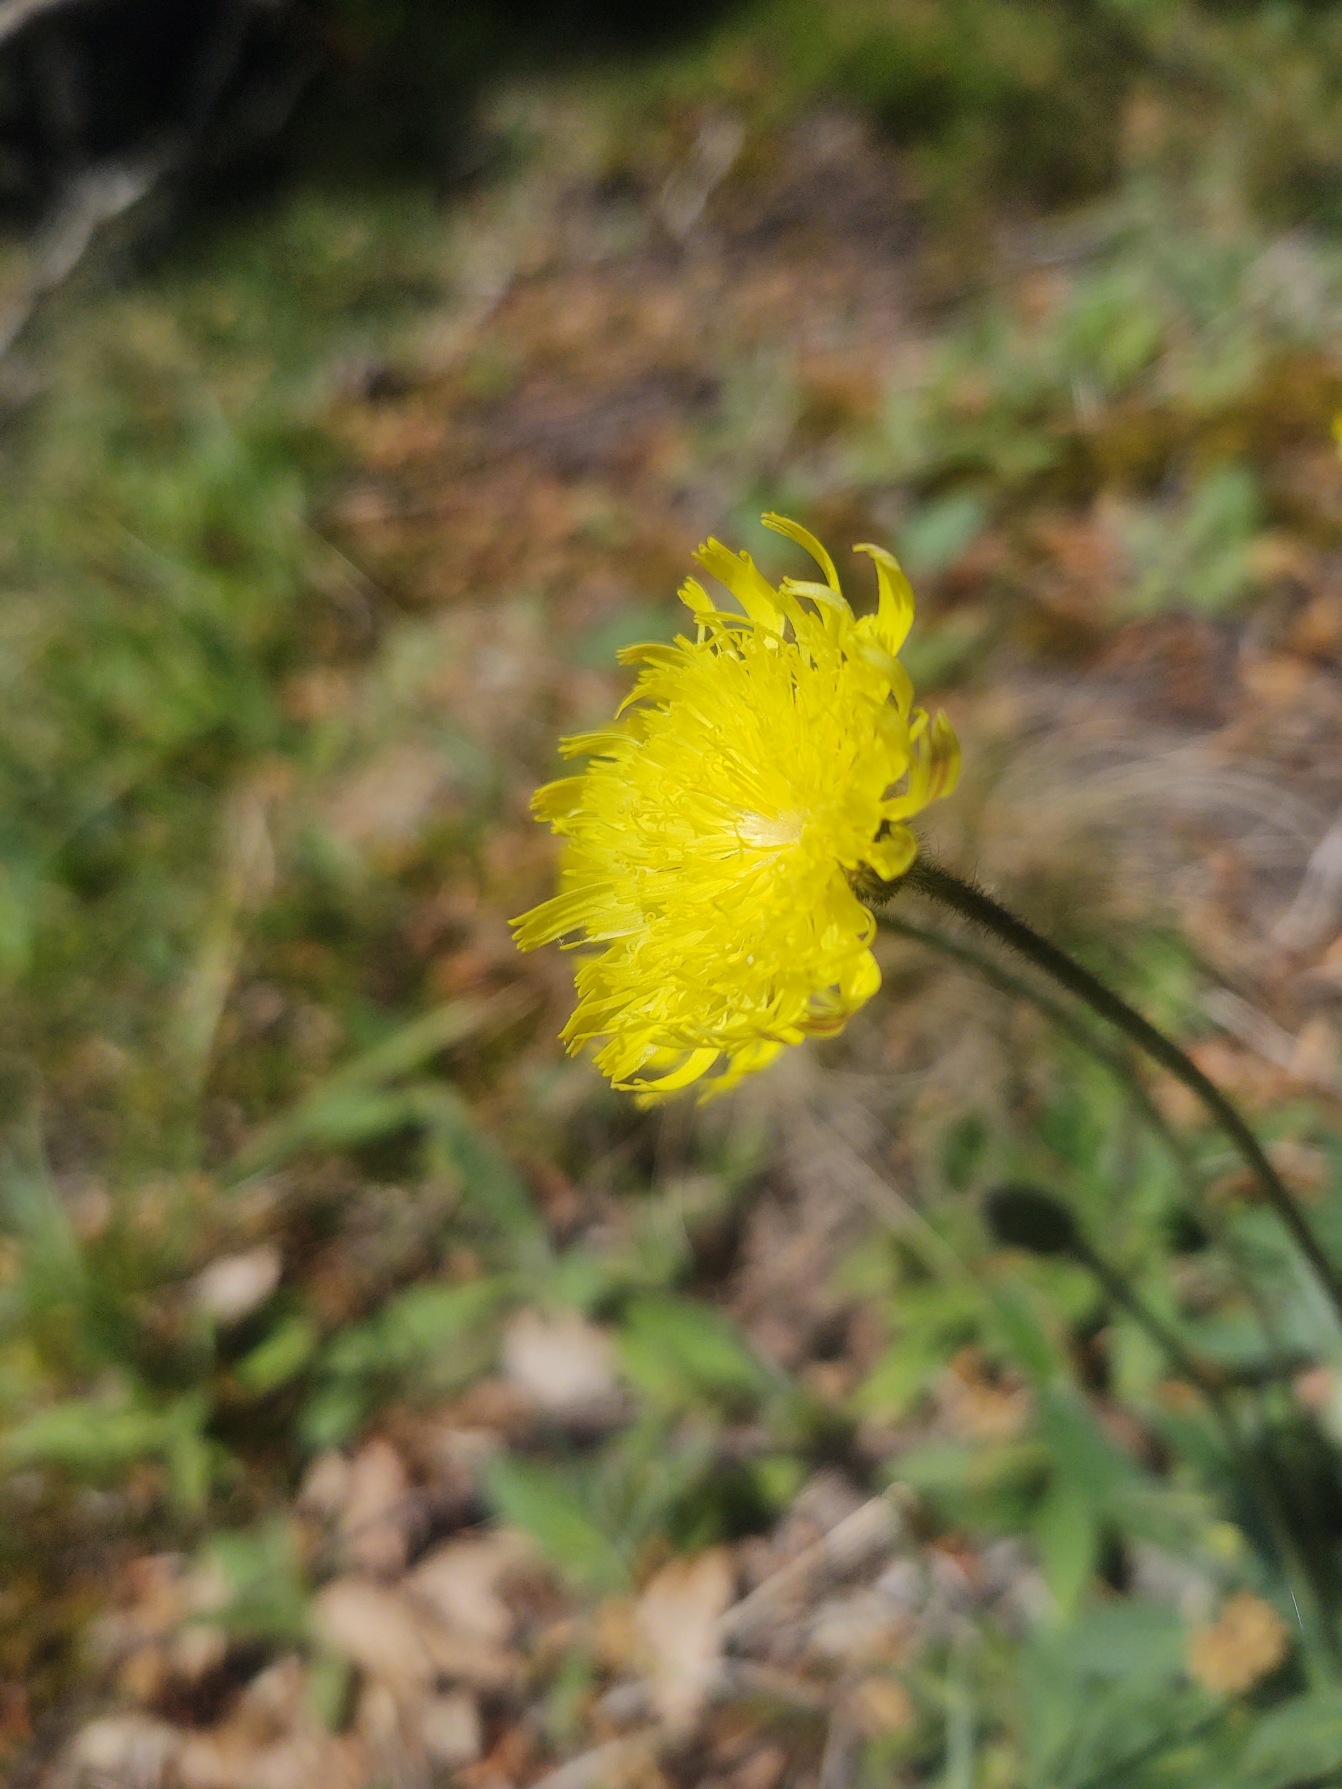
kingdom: Plantae
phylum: Tracheophyta
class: Magnoliopsida
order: Asterales
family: Asteraceae
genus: Pilosella
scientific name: Pilosella officinarum
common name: Håret høgeurt
